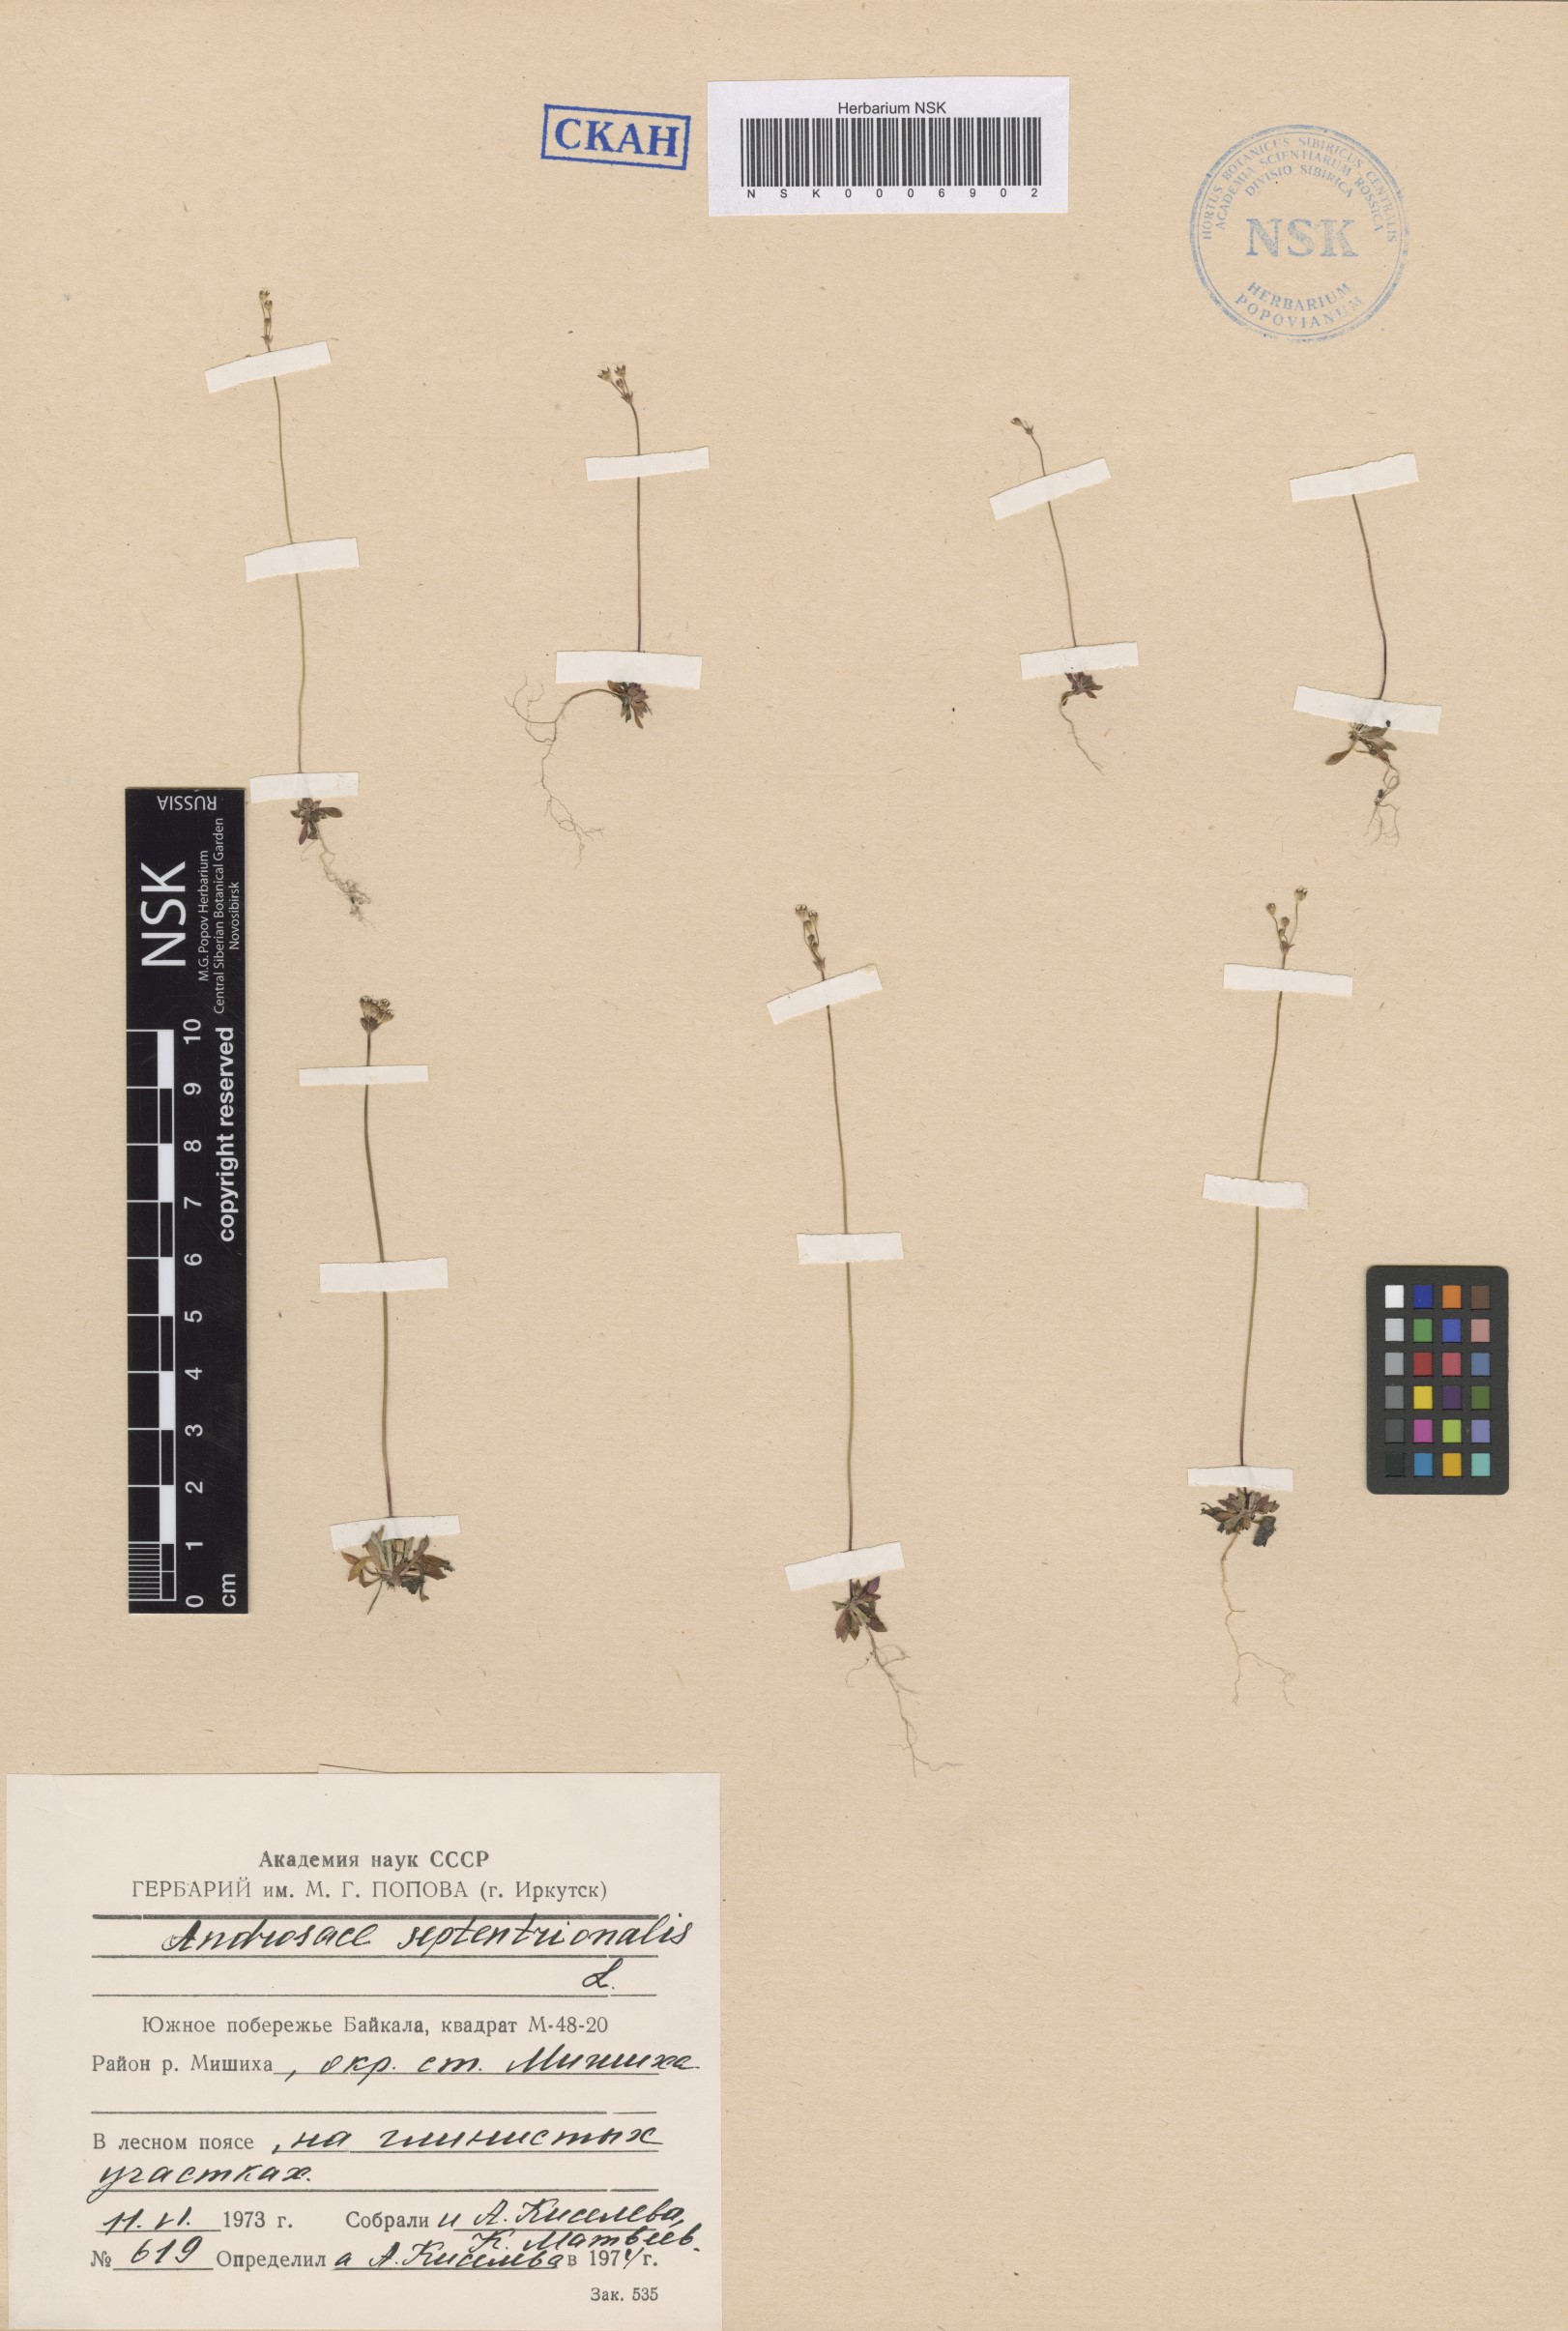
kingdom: Plantae
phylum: Tracheophyta
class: Magnoliopsida
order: Ericales
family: Primulaceae
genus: Androsace
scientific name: Androsace septentrionalis
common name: Hairy northern fairy-candelabra
